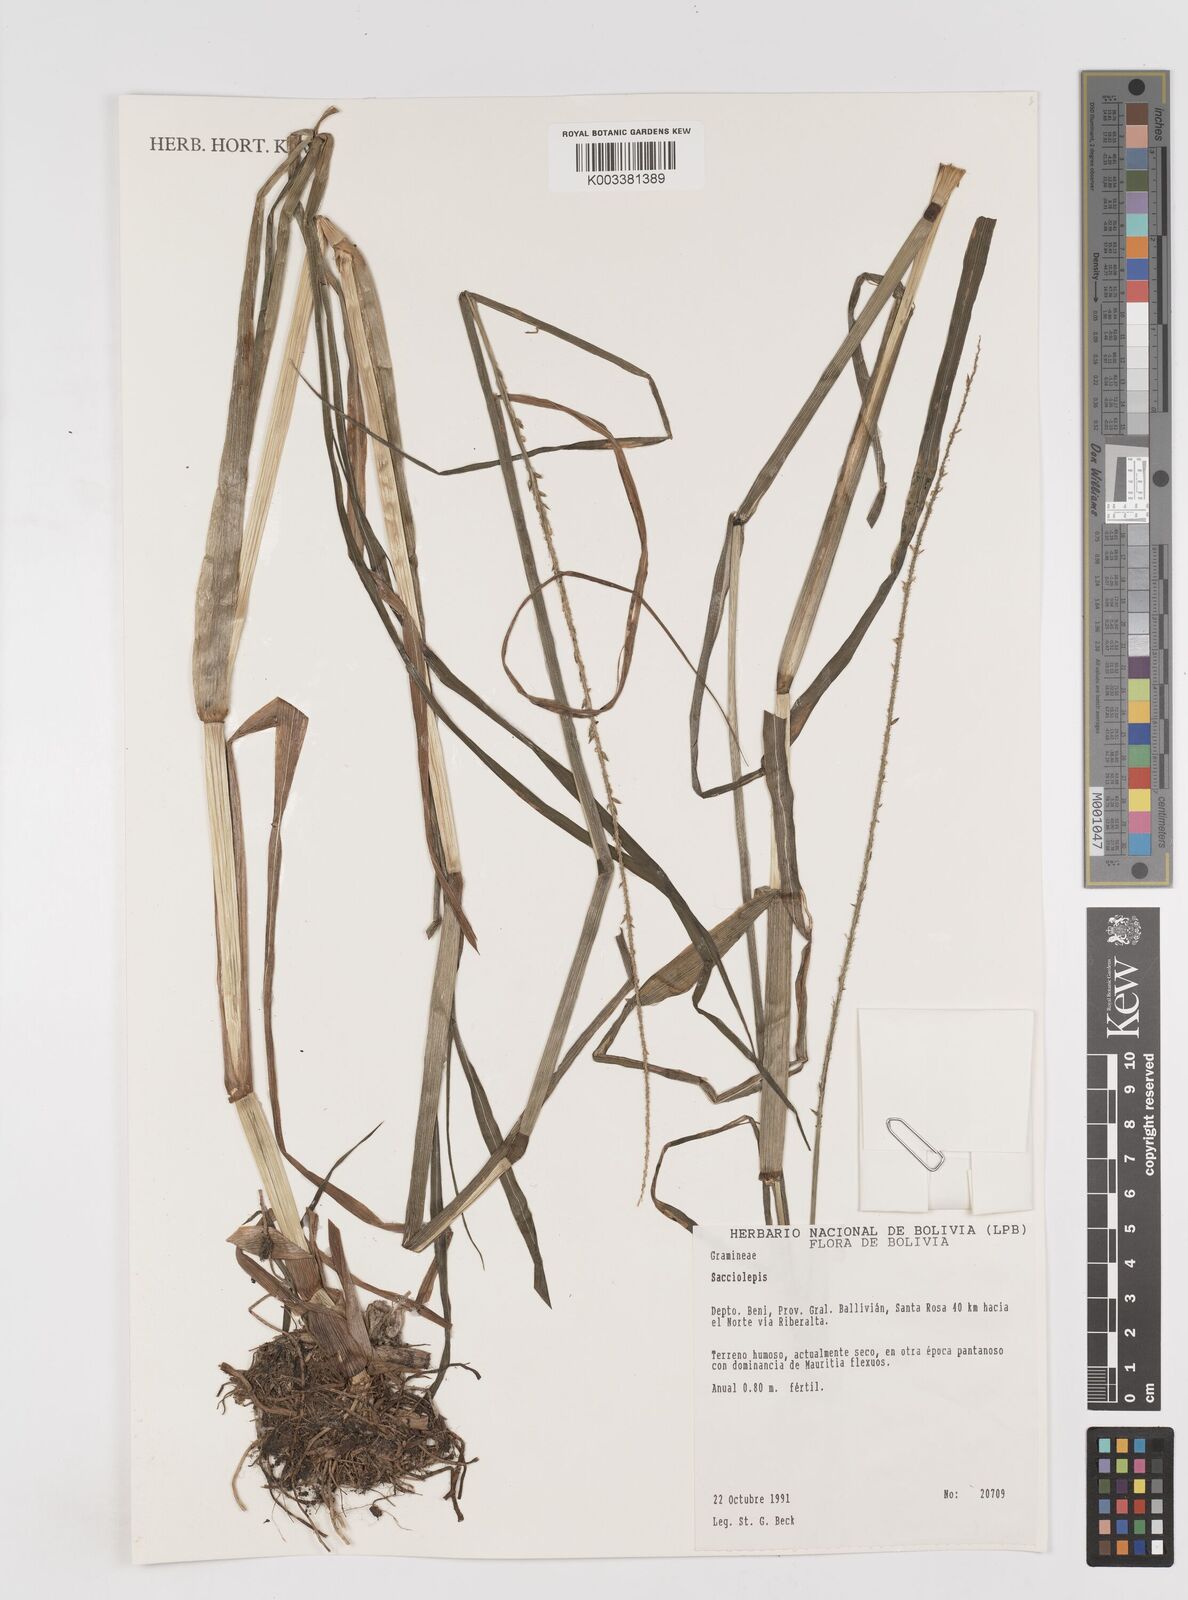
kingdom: Plantae
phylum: Tracheophyta
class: Liliopsida
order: Poales
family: Poaceae
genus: Sacciolepis
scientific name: Sacciolepis vilvoides
